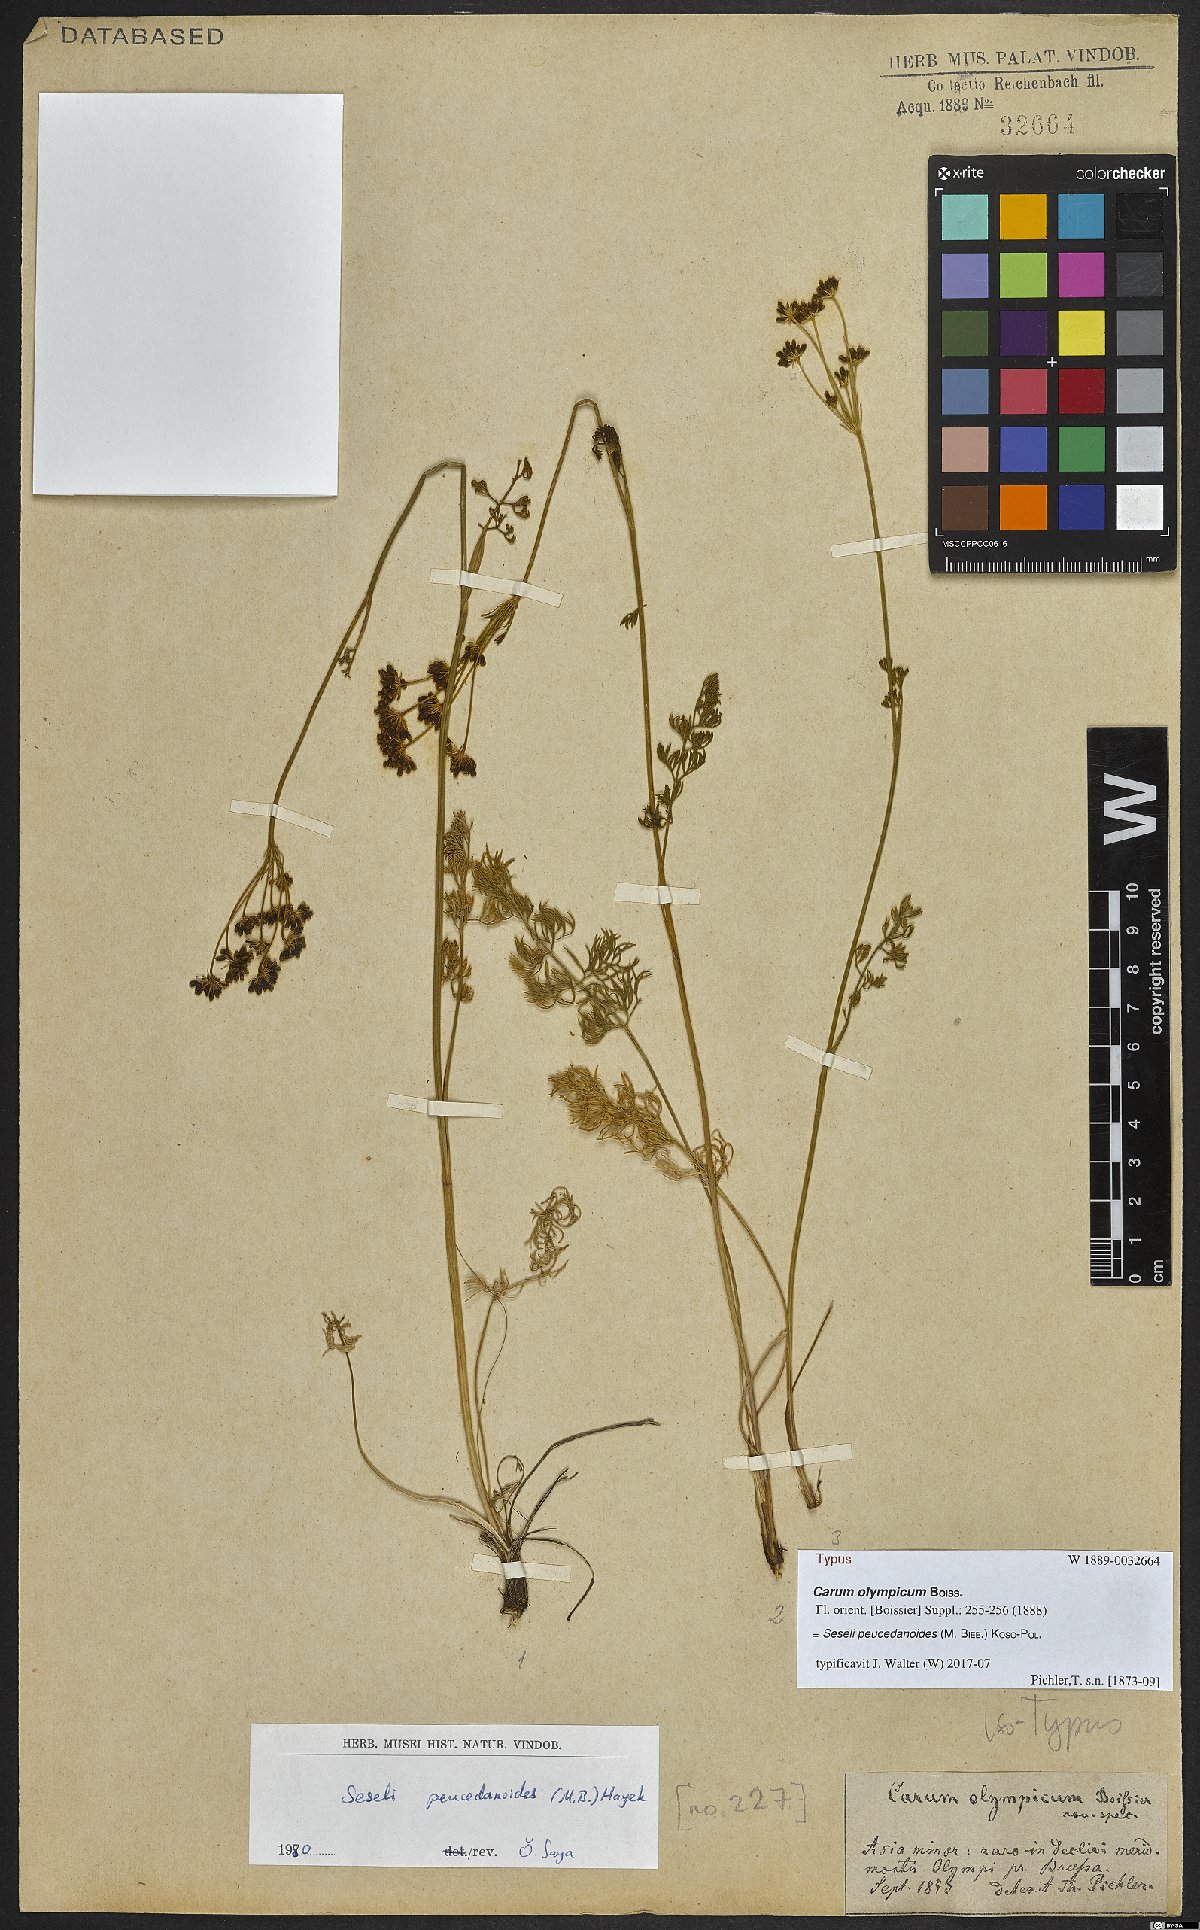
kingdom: Plantae
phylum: Tracheophyta
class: Magnoliopsida
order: Apiales
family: Apiaceae
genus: Gasparinia
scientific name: Gasparinia peucedanoides
